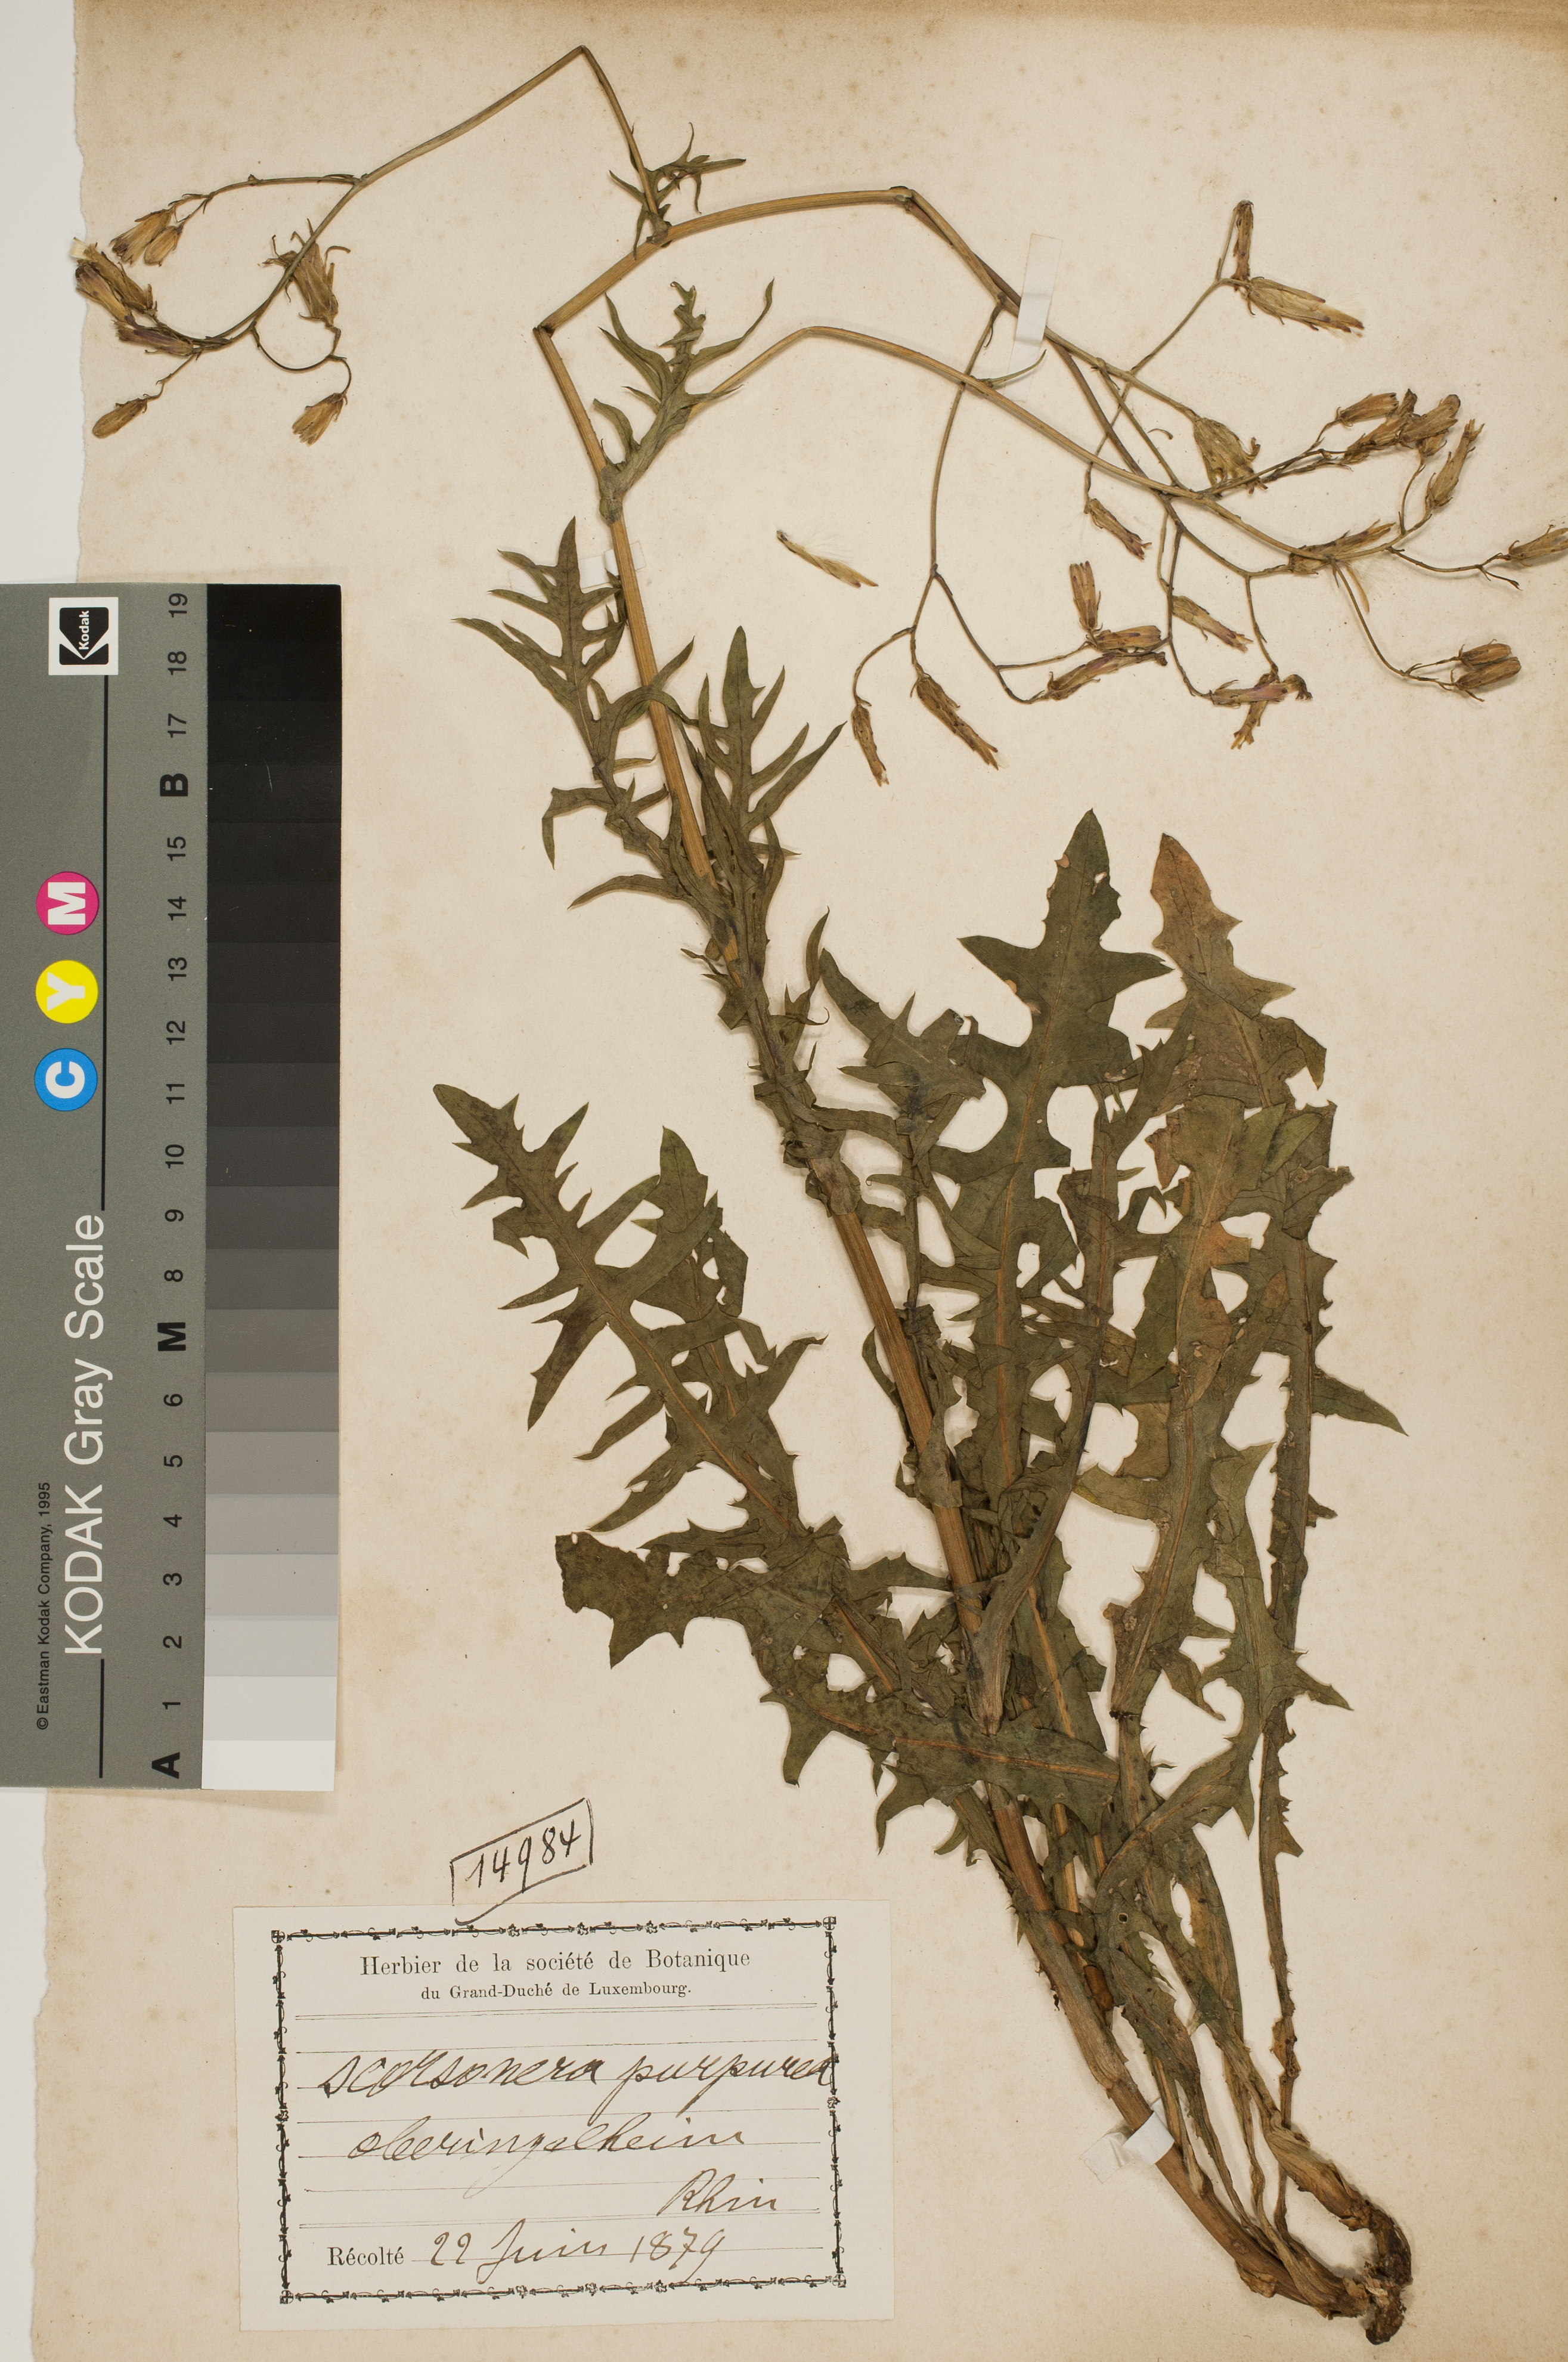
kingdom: Plantae
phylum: Tracheophyta
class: Magnoliopsida
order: Asterales
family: Asteraceae
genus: Scorzonera
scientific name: Scorzonera purpurea
